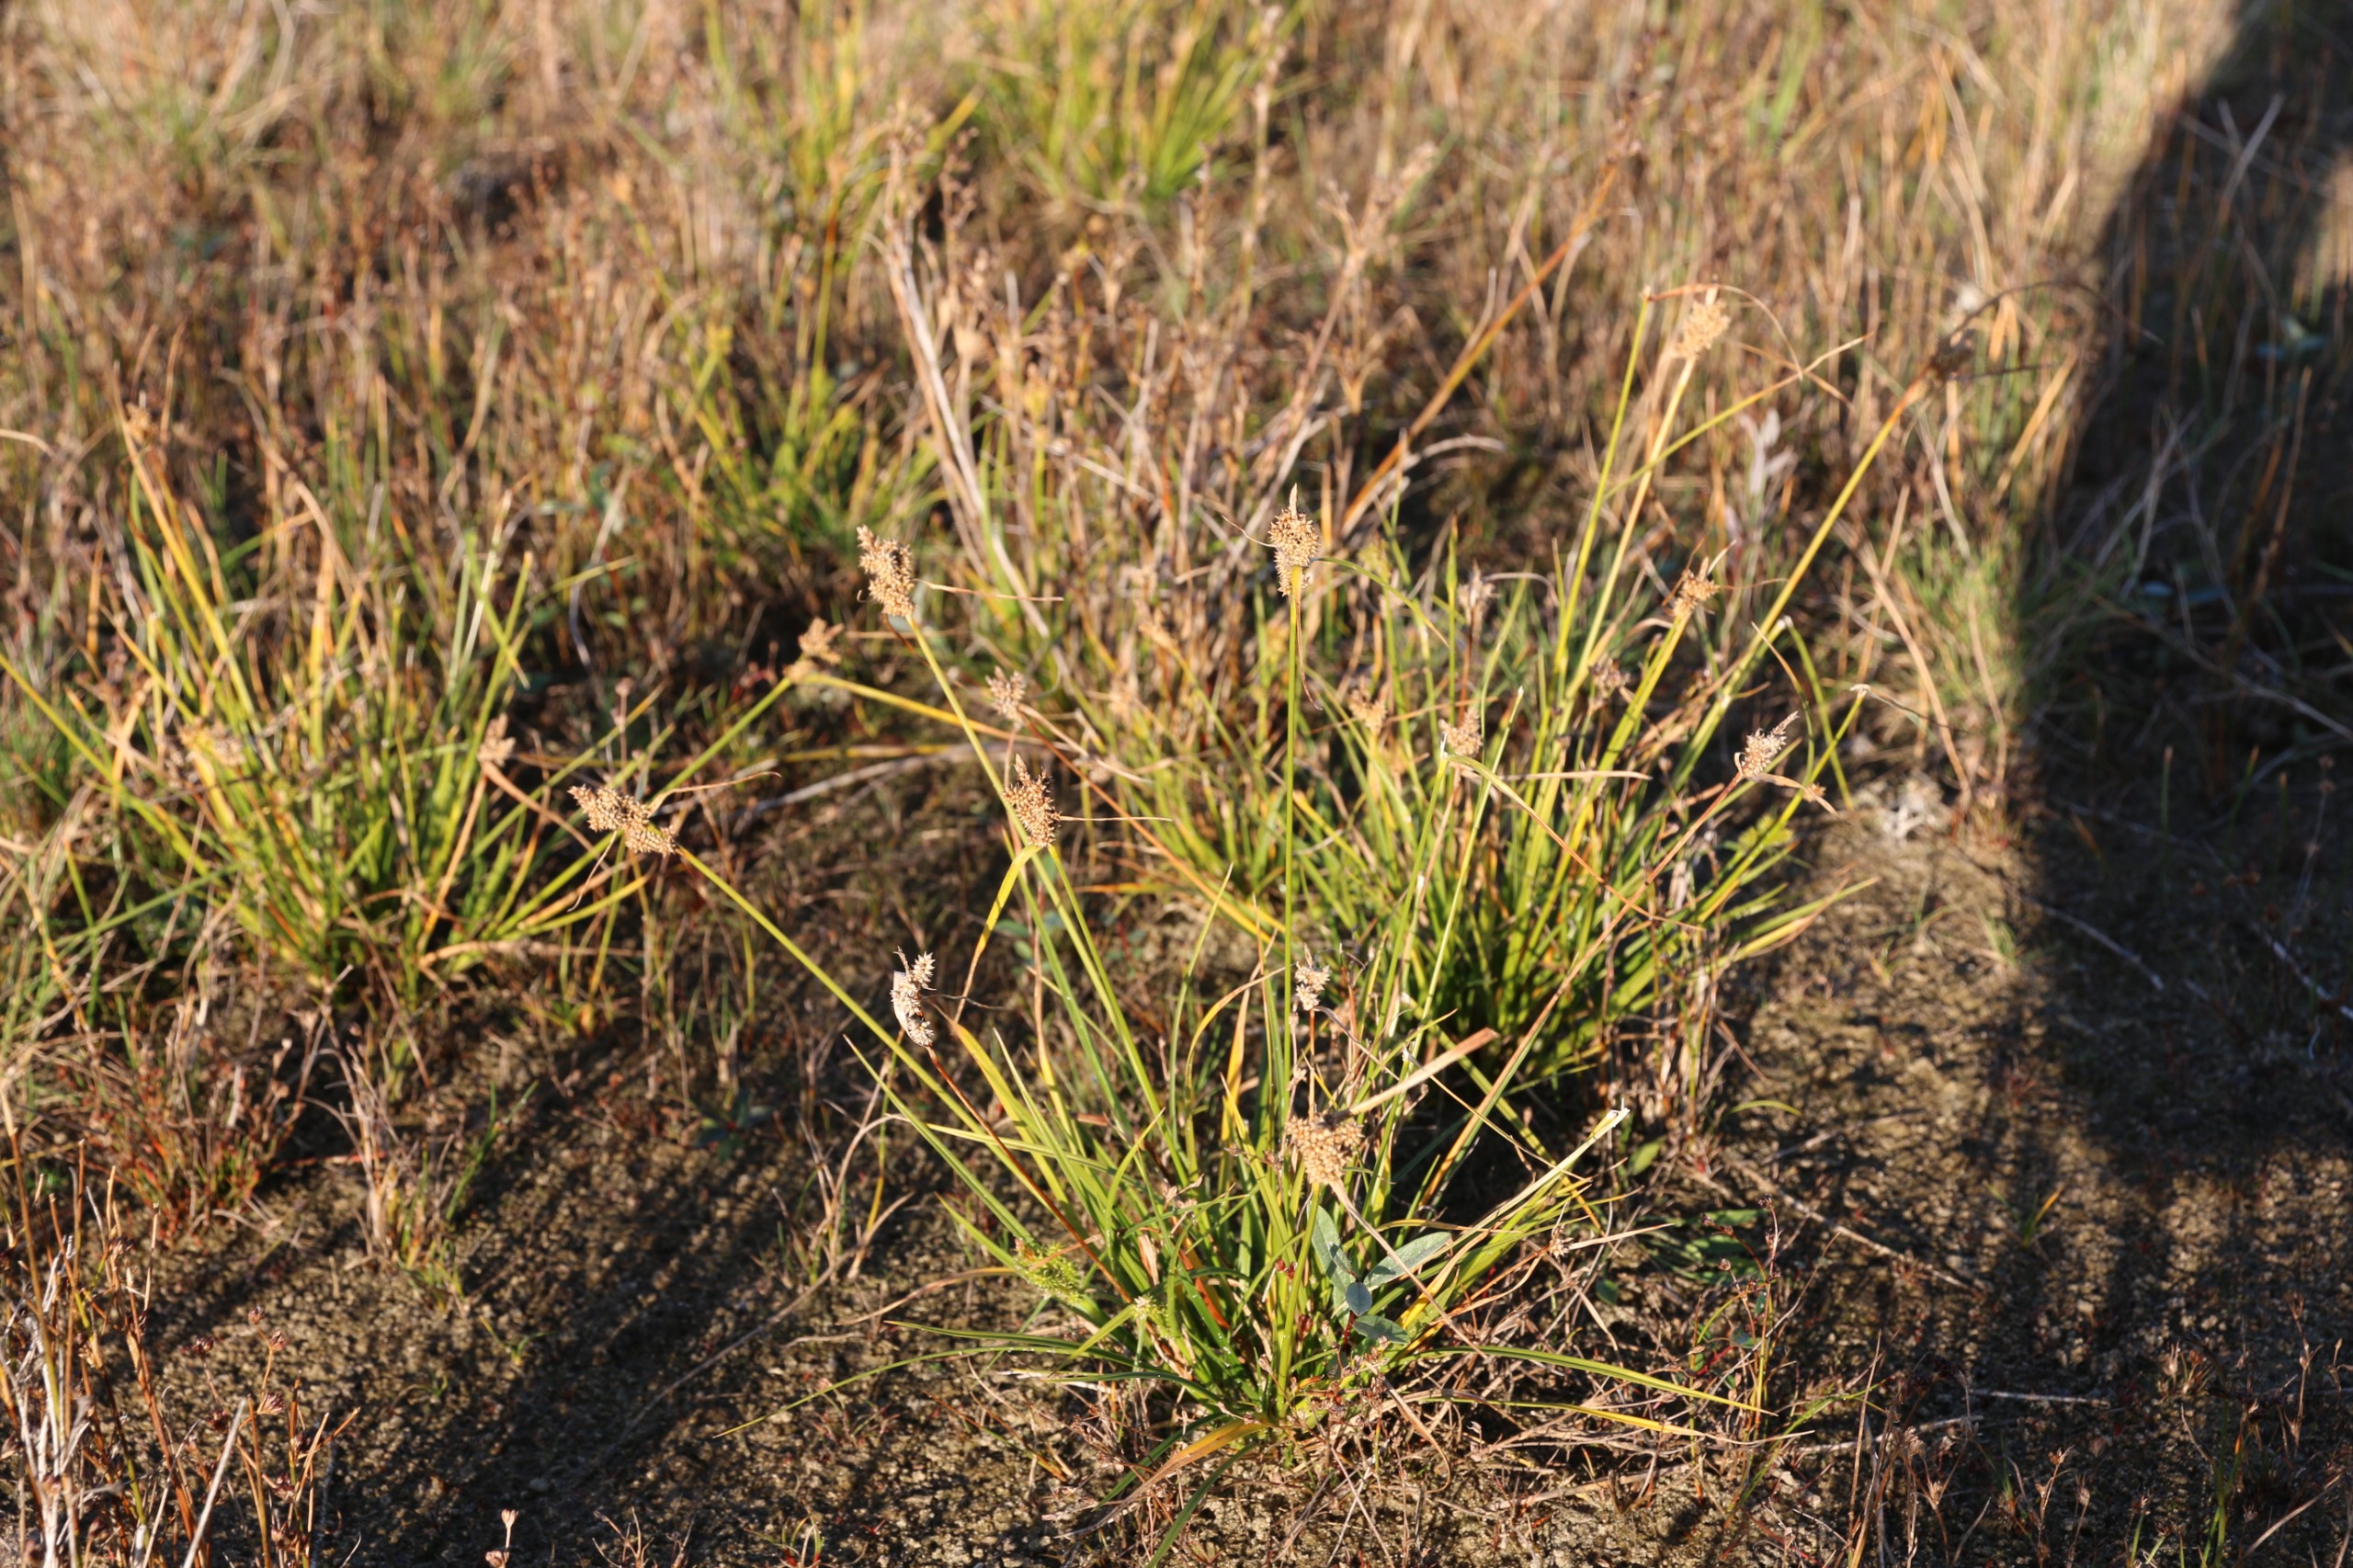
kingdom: Plantae
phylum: Tracheophyta
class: Liliopsida
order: Poales
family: Cyperaceae
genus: Carex
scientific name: Carex oederi
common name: Høst-star
